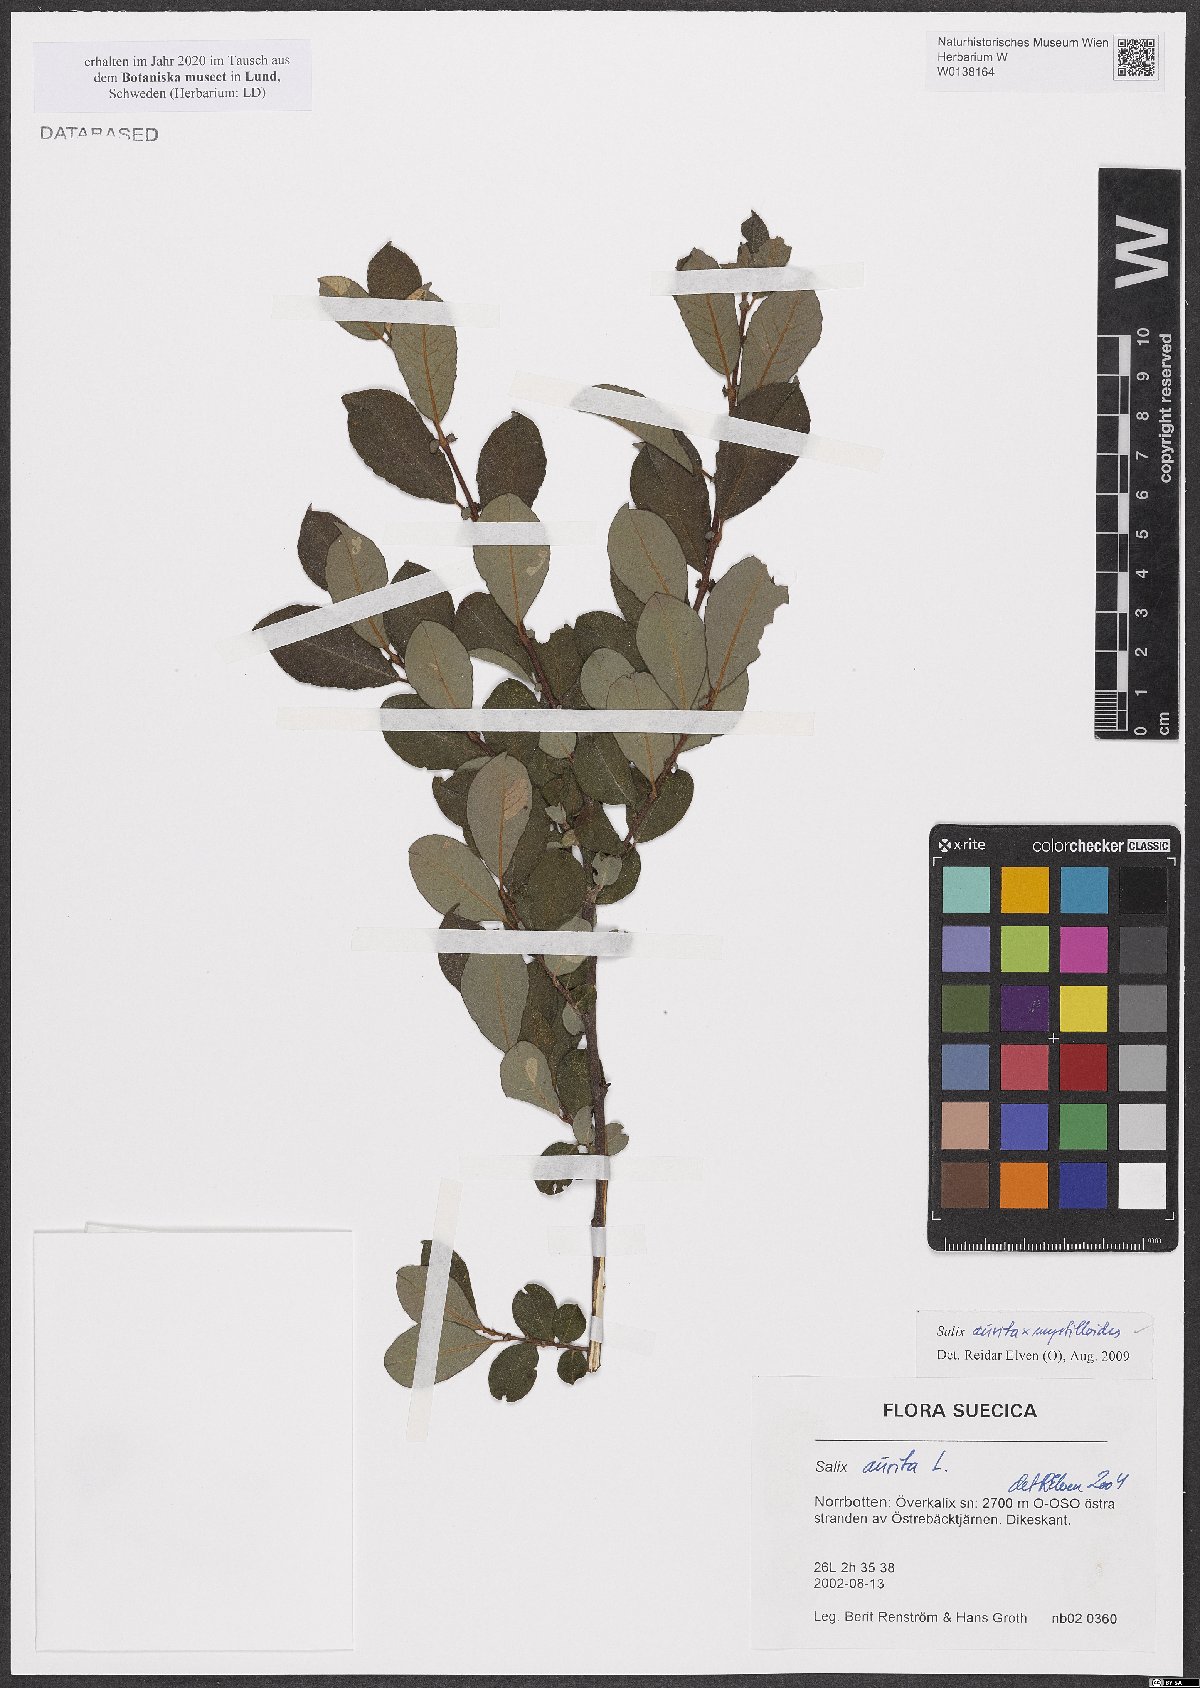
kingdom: Plantae
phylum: Tracheophyta
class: Magnoliopsida
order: Malpighiales
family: Salicaceae
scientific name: Salicaceae
